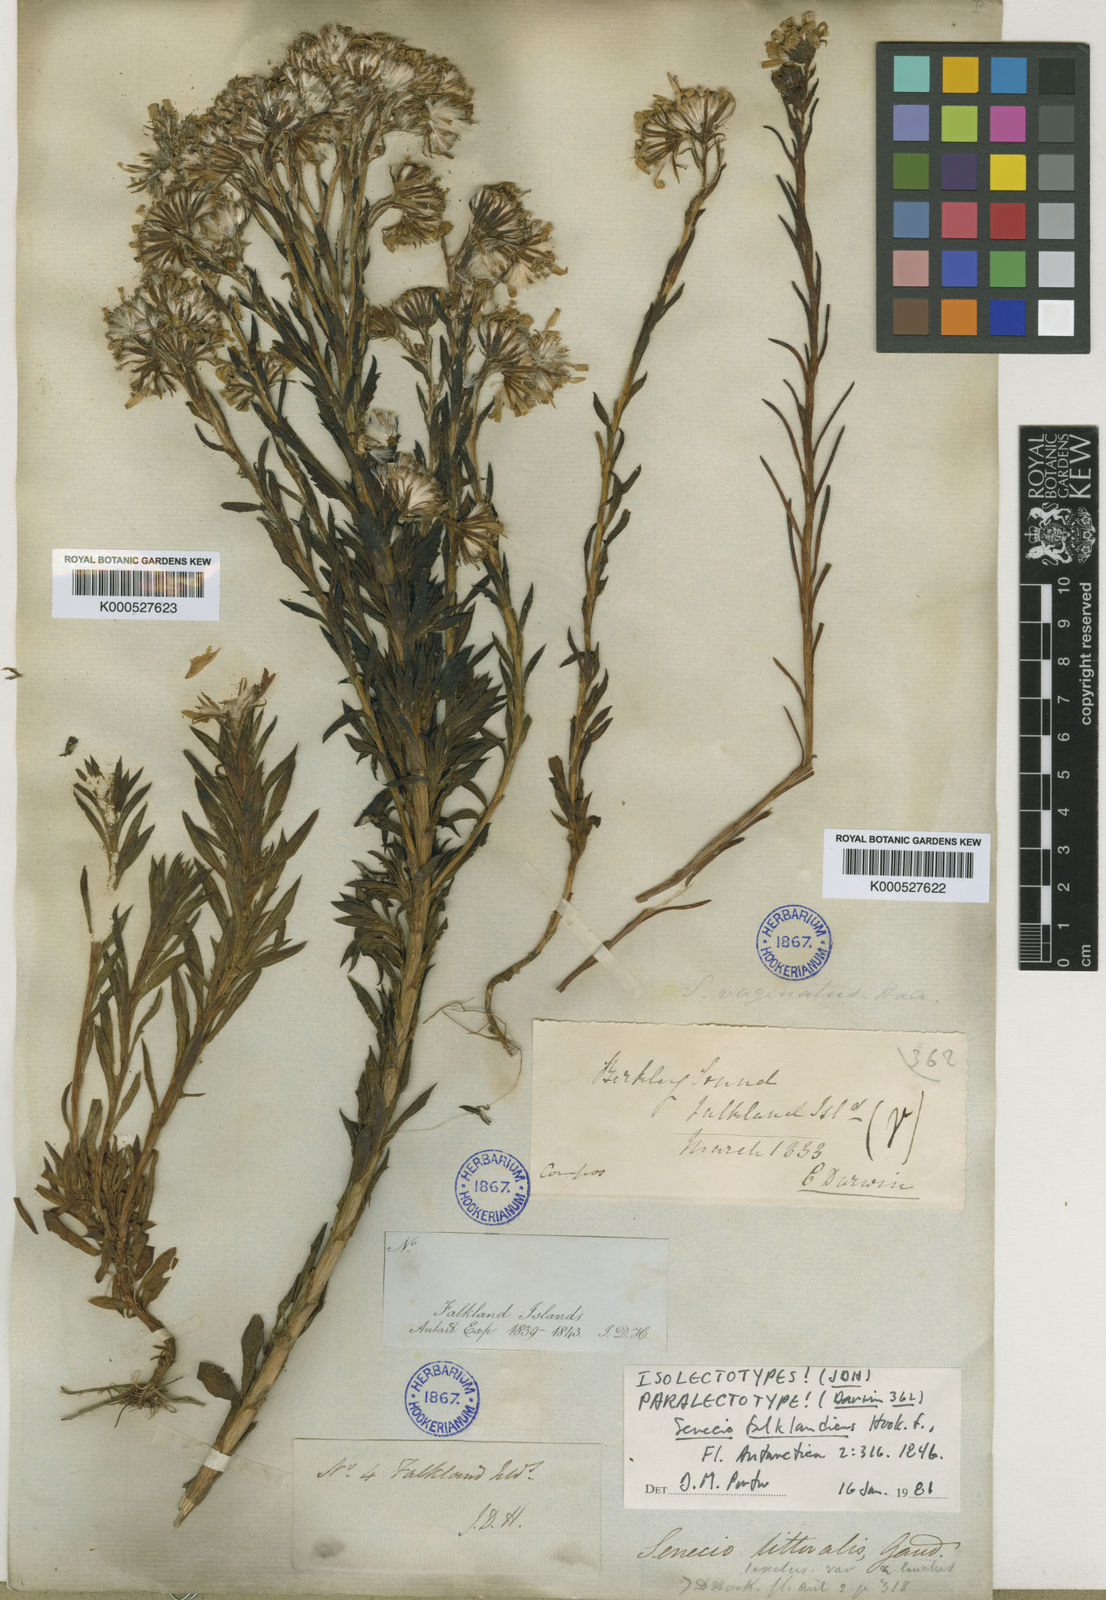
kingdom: Plantae
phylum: Tracheophyta
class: Magnoliopsida
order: Asterales
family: Asteraceae
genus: Senecio
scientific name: Senecio vaginatus
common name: Smooth falkland daisy
